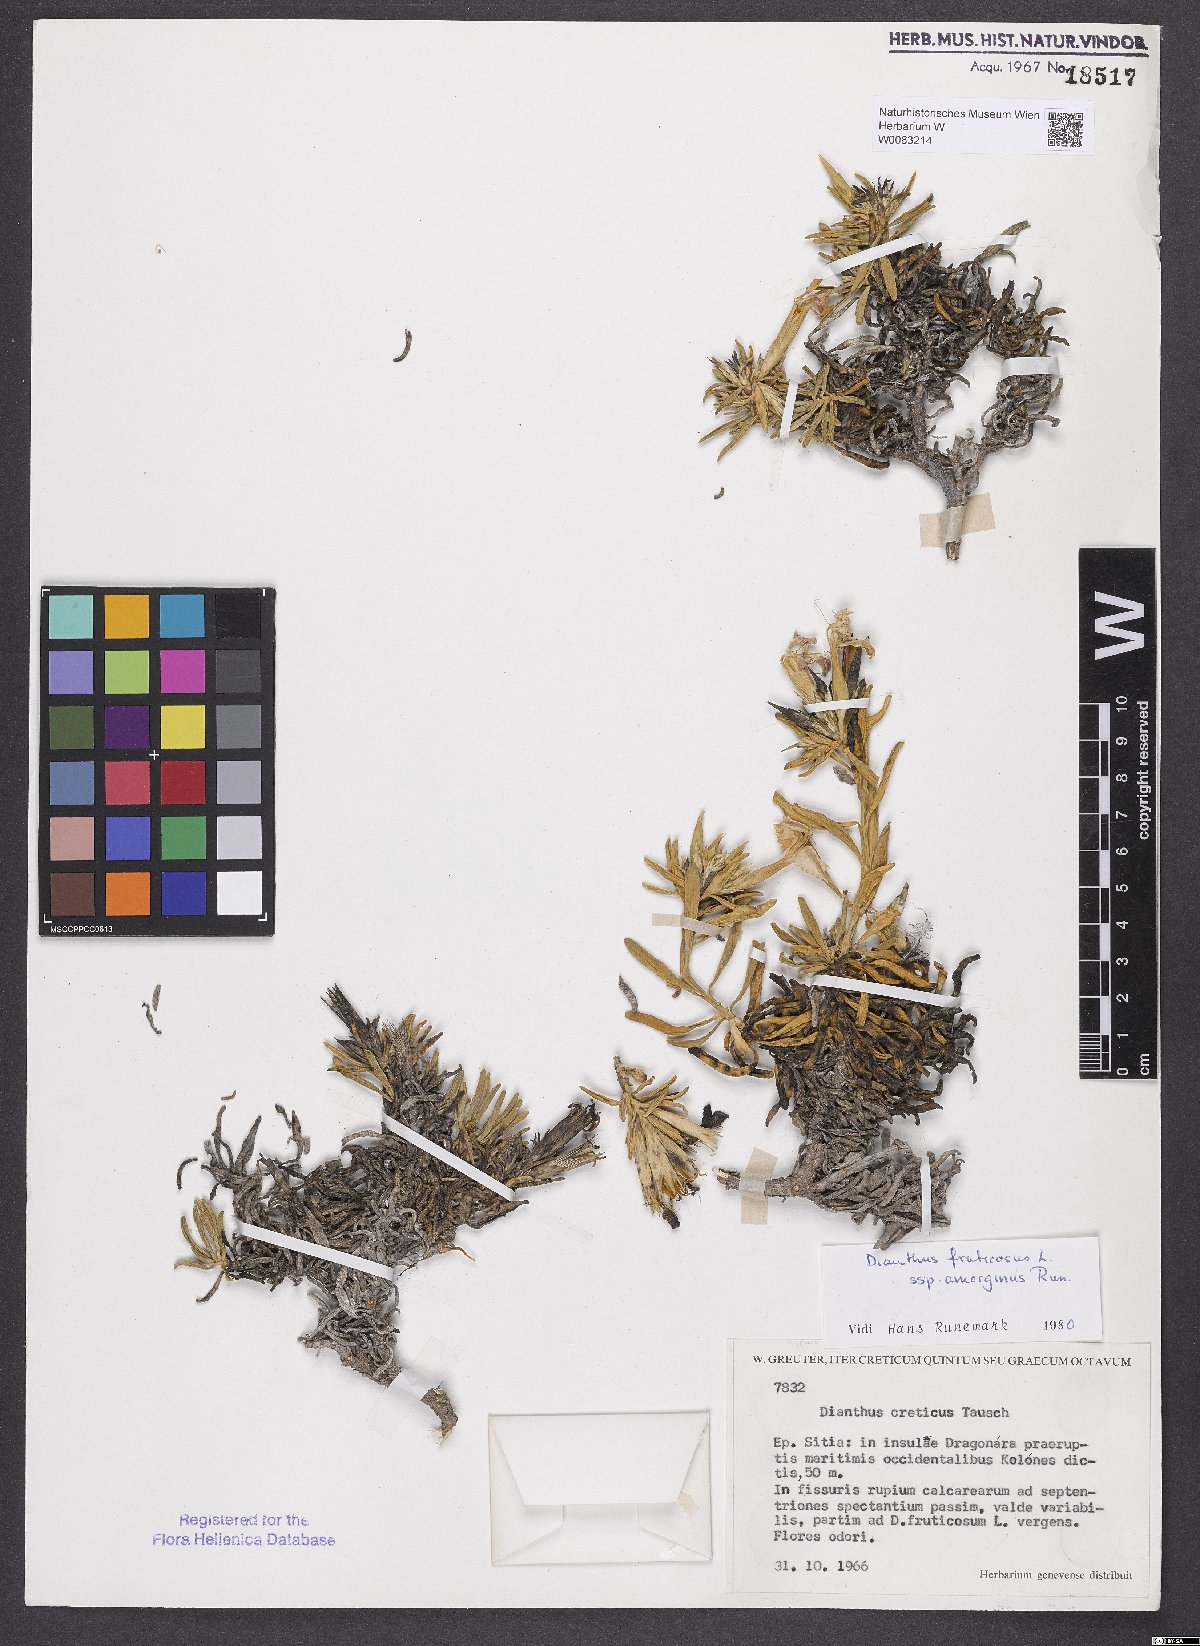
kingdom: Plantae
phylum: Tracheophyta
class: Magnoliopsida
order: Caryophyllales
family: Caryophyllaceae
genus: Dianthus
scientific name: Dianthus fruticosus
